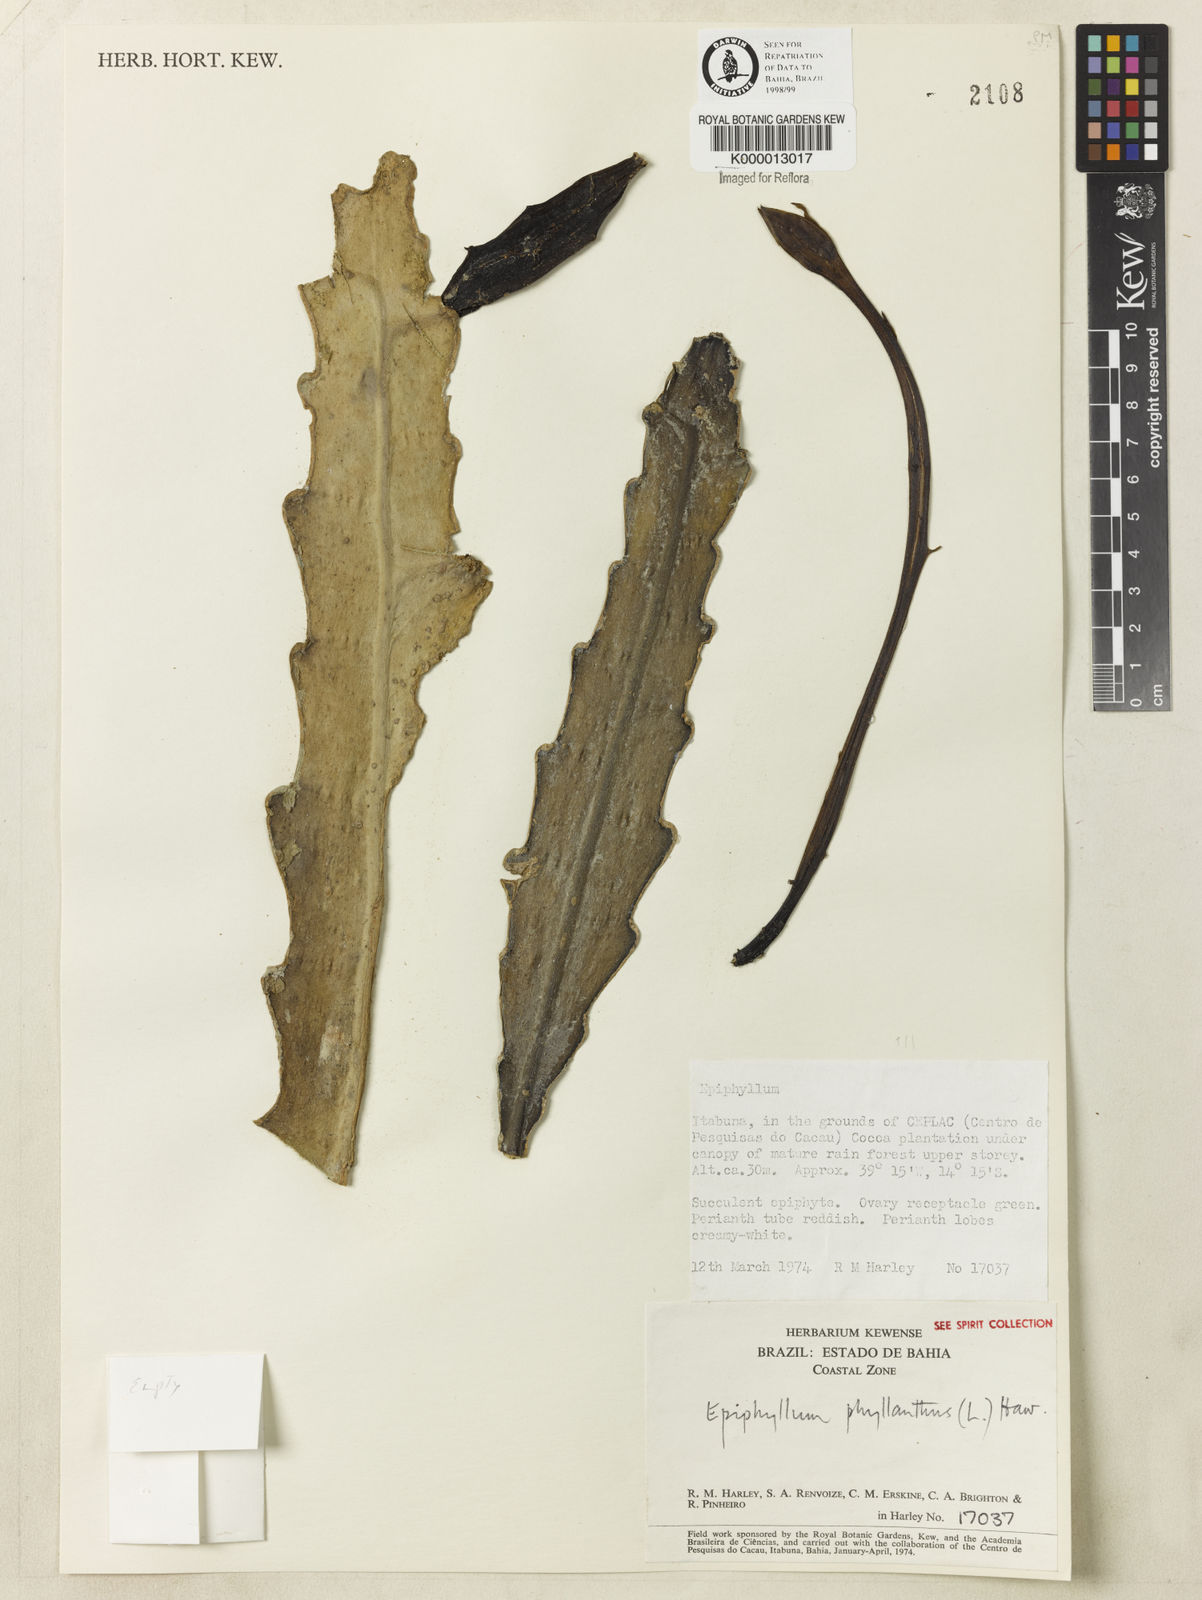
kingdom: Plantae
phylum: Tracheophyta
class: Magnoliopsida
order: Caryophyllales
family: Cactaceae
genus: Epiphyllum
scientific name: Epiphyllum phyllanthus
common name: Climbing cactus
